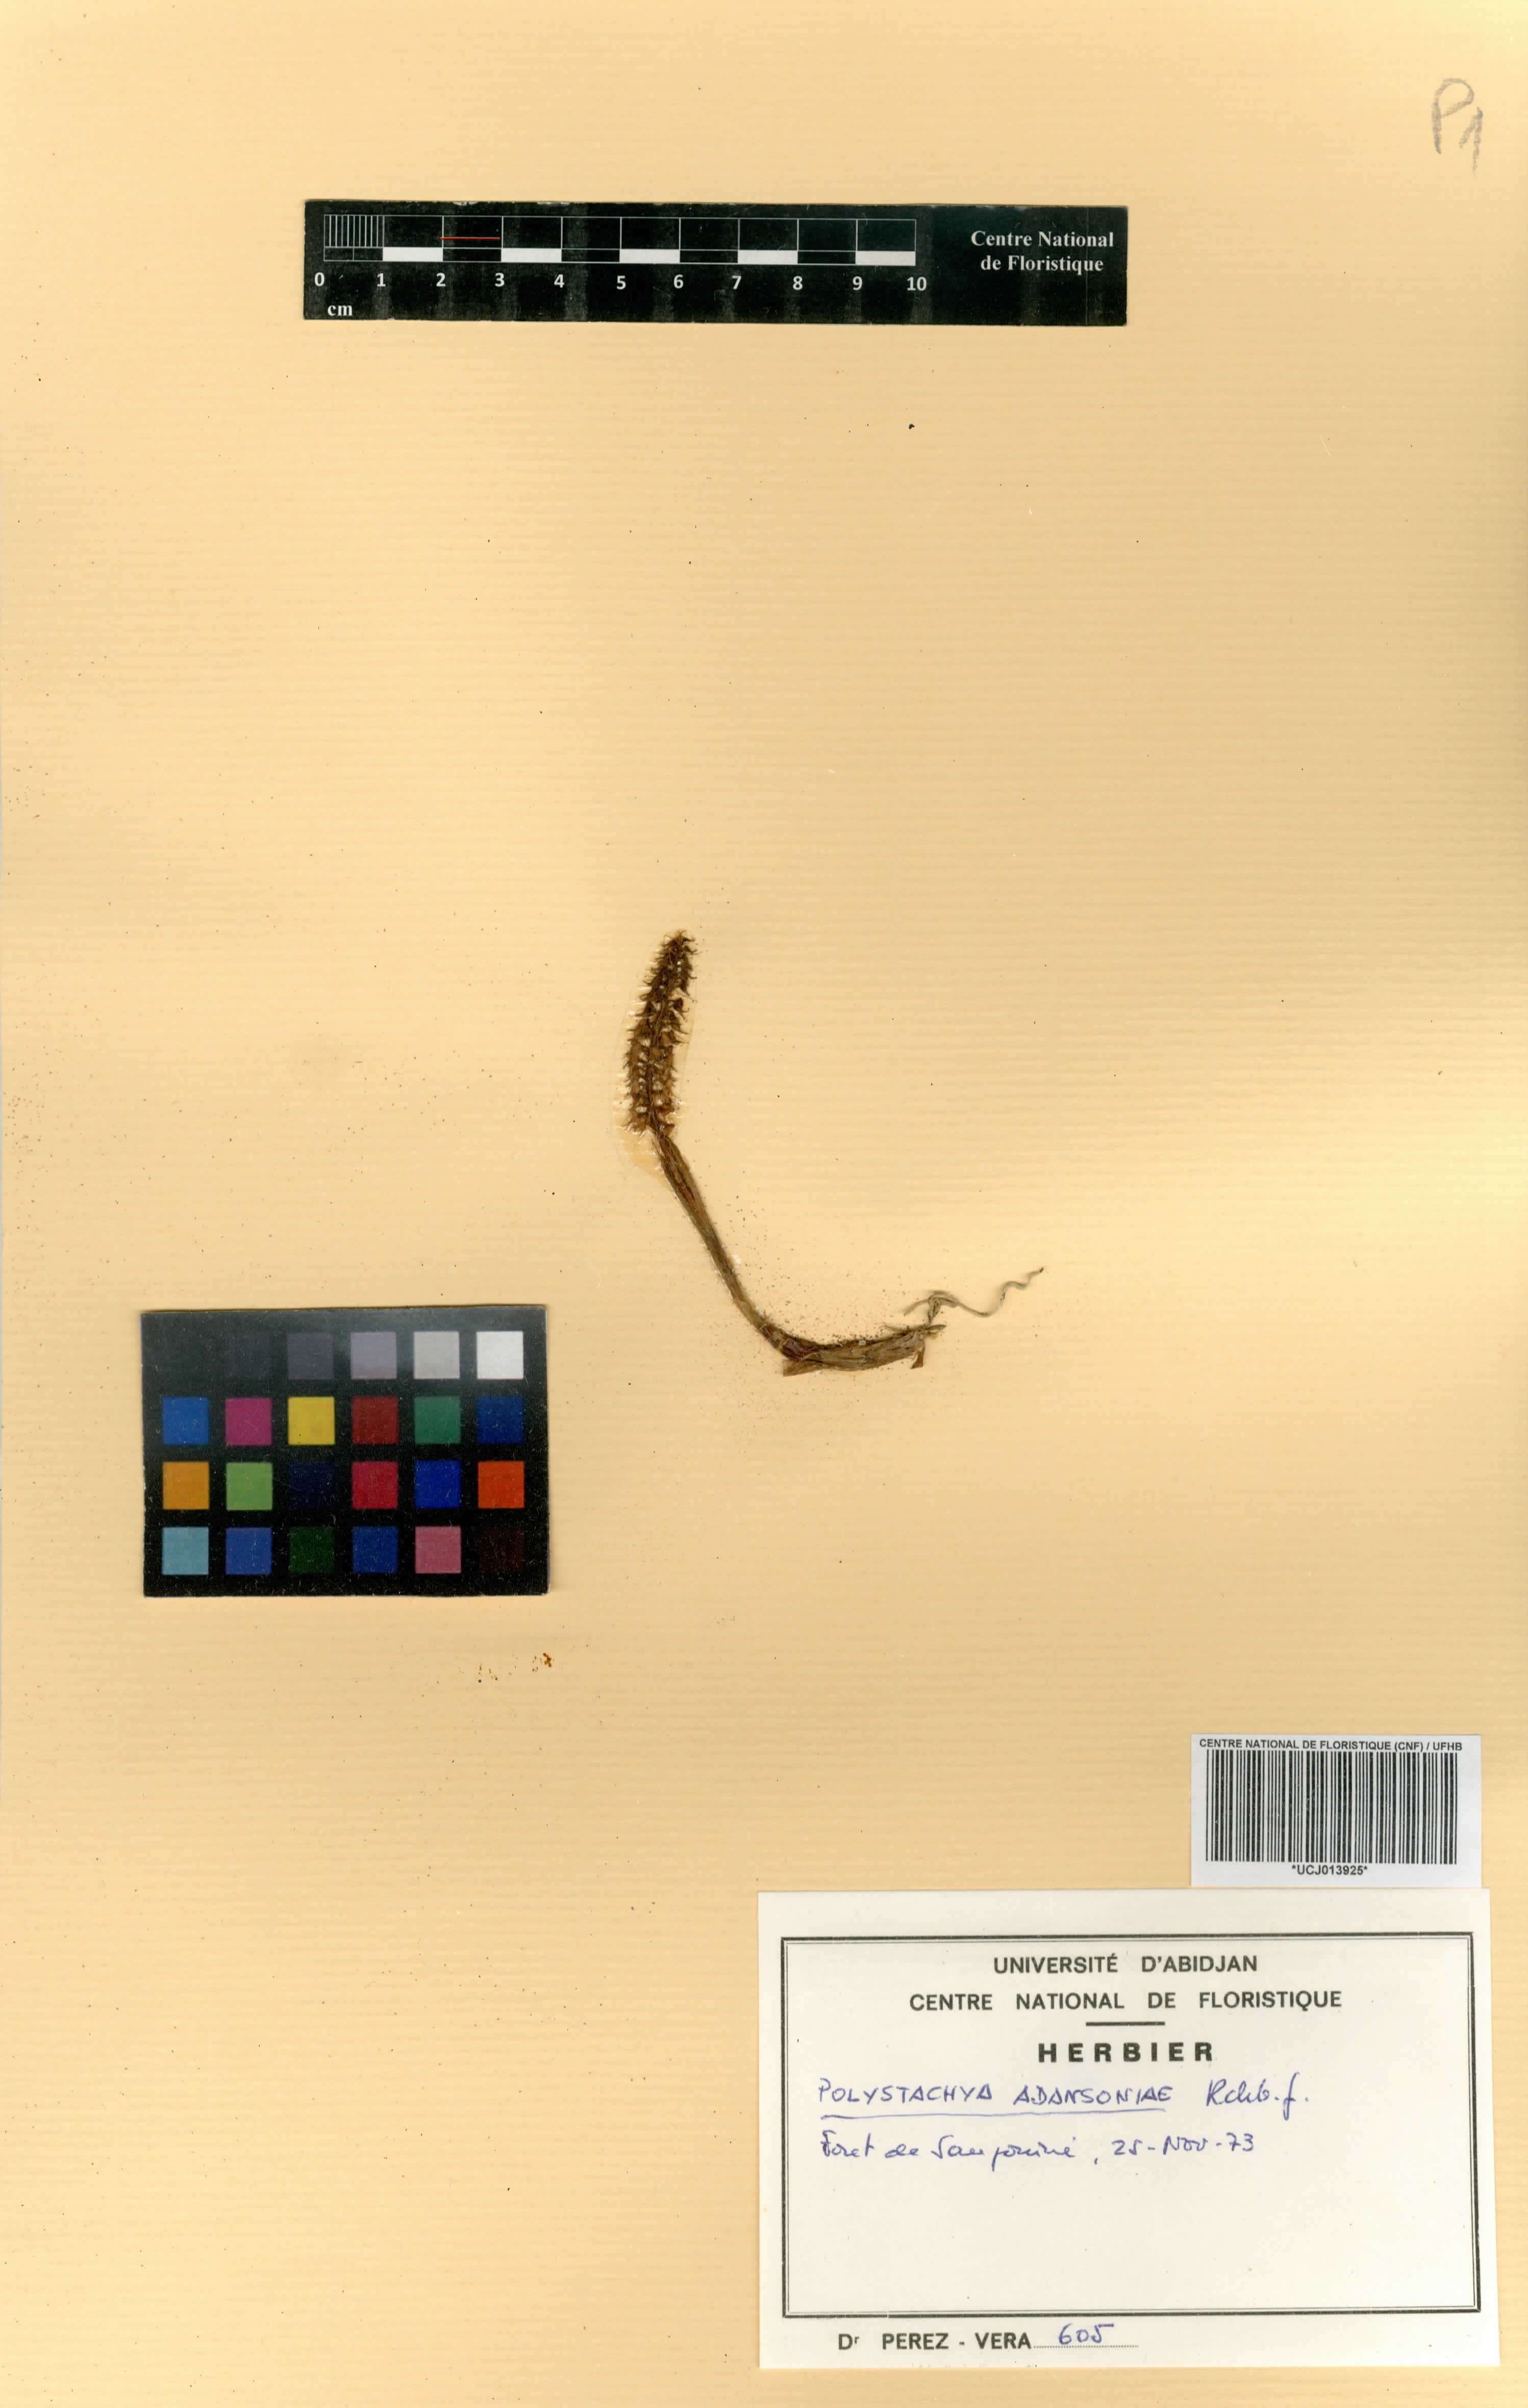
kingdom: Plantae
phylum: Tracheophyta
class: Liliopsida
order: Asparagales
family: Orchidaceae
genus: Polystachya
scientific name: Polystachya adansoniae
